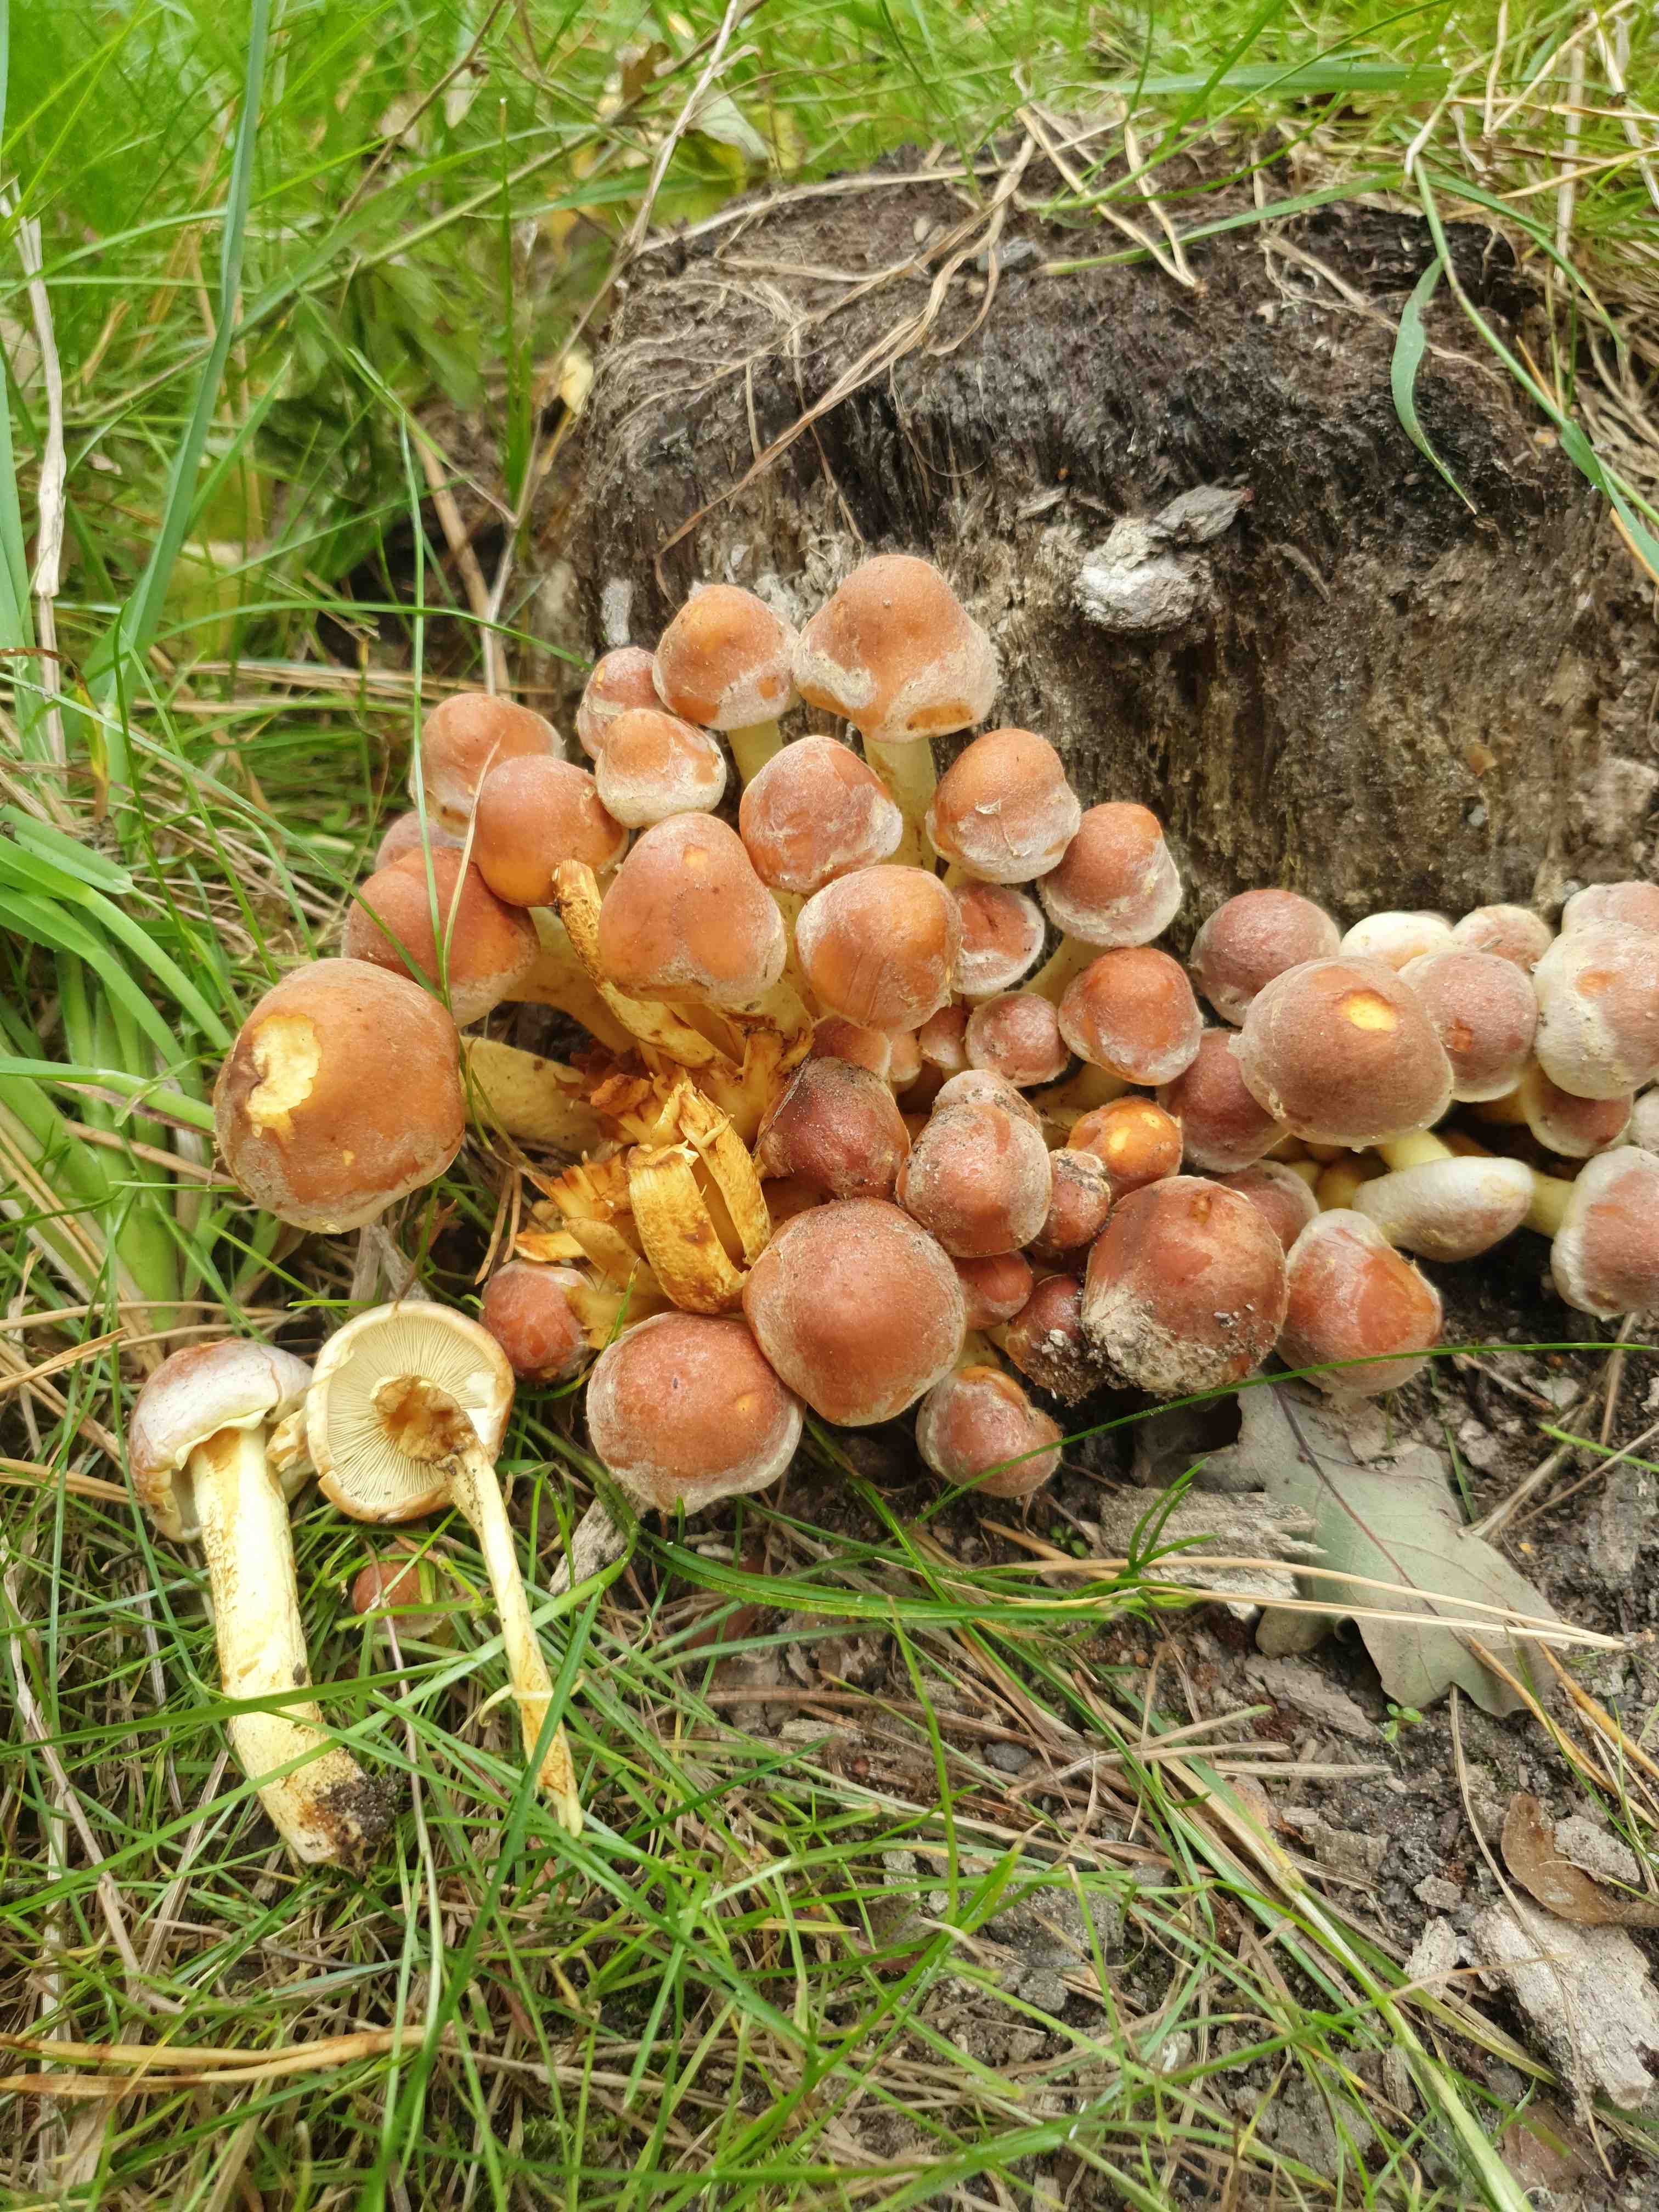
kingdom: Fungi
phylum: Basidiomycota
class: Agaricomycetes
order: Agaricales
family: Strophariaceae
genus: Hypholoma
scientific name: Hypholoma lateritium
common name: teglrød svovlhat
